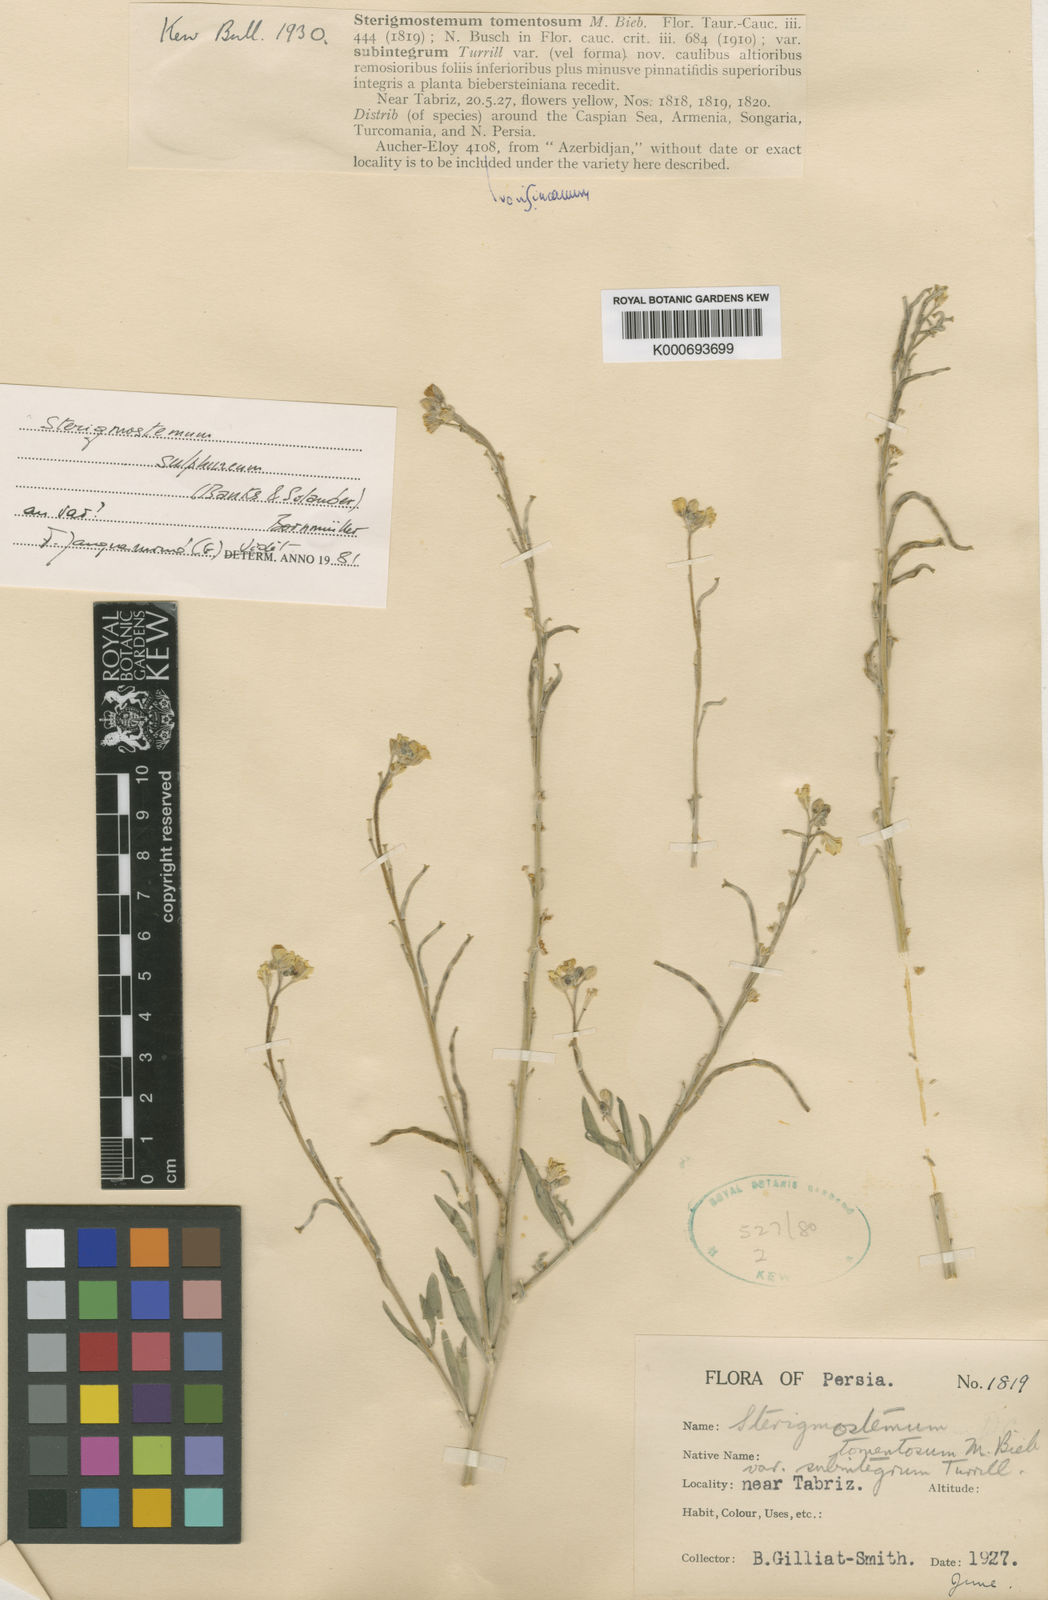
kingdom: Plantae
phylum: Tracheophyta
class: Magnoliopsida
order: Brassicales
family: Brassicaceae
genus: Sterigmostemum
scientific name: Sterigmostemum
